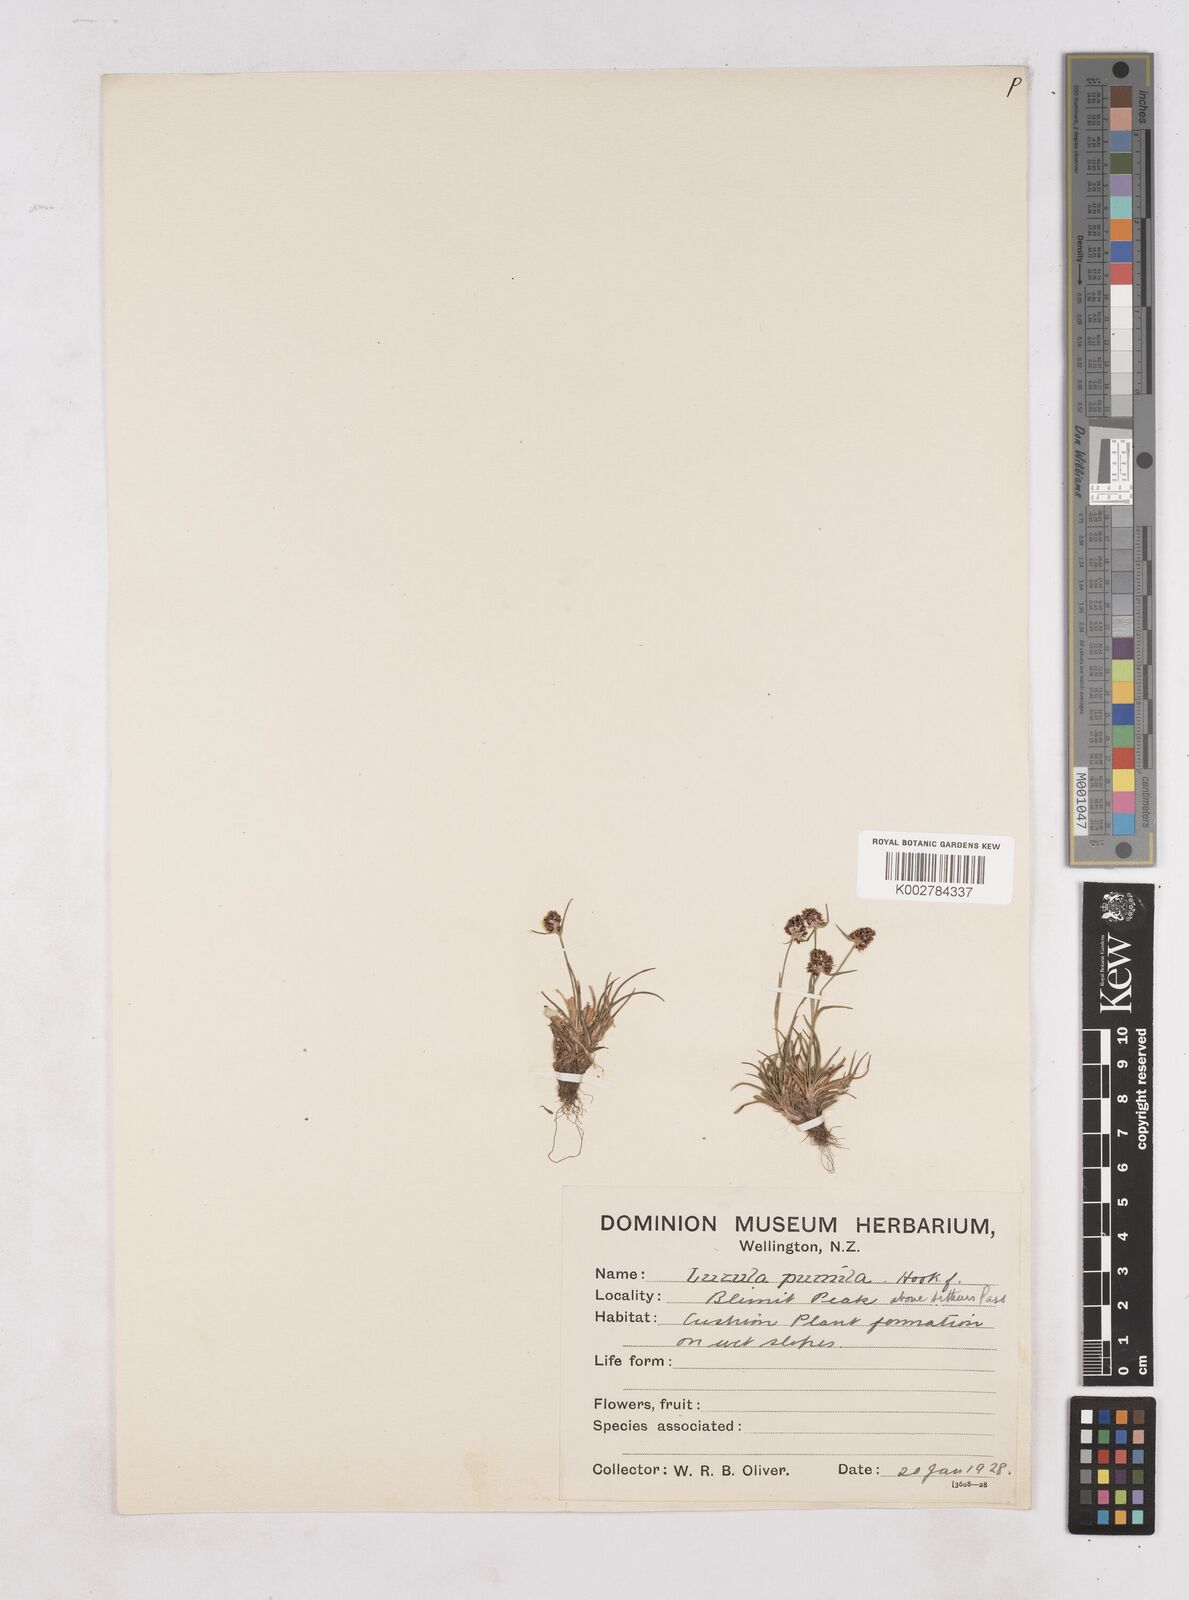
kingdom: Plantae
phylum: Tracheophyta
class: Liliopsida
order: Poales
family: Juncaceae
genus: Luzula
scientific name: Luzula pumila
